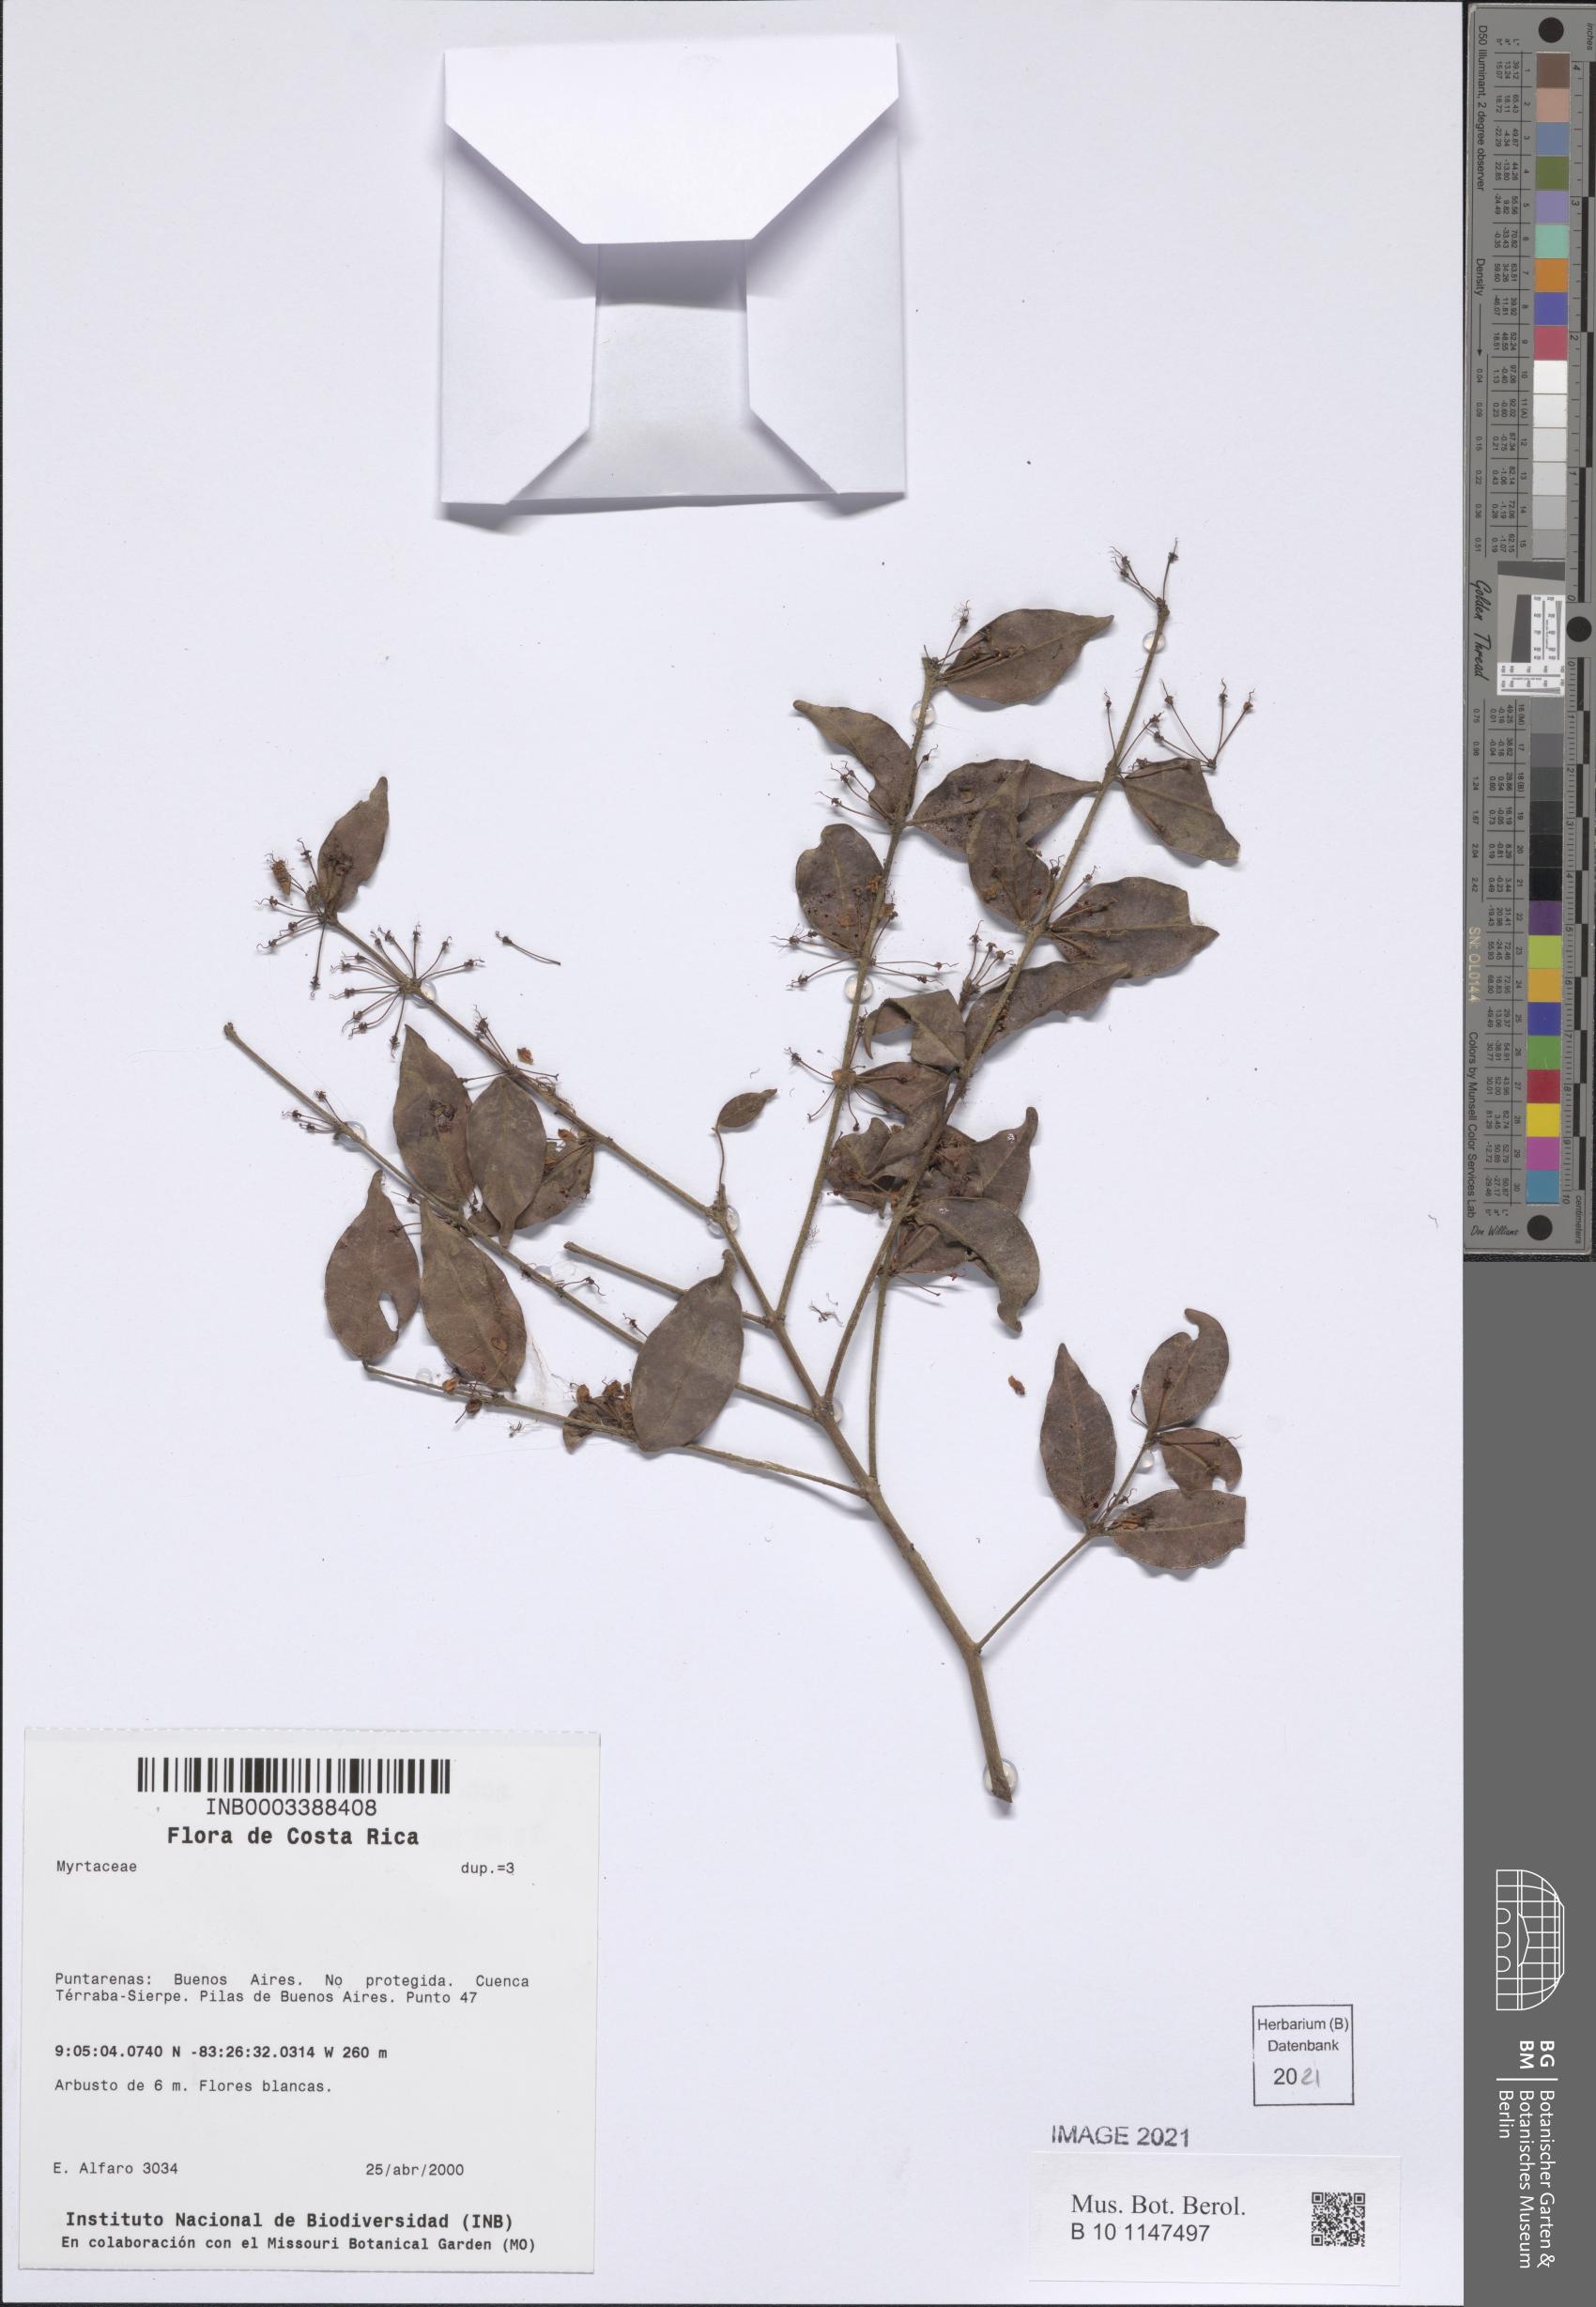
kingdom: Plantae
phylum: Tracheophyta
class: Magnoliopsida
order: Myrtales
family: Myrtaceae
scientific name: Myrtaceae
